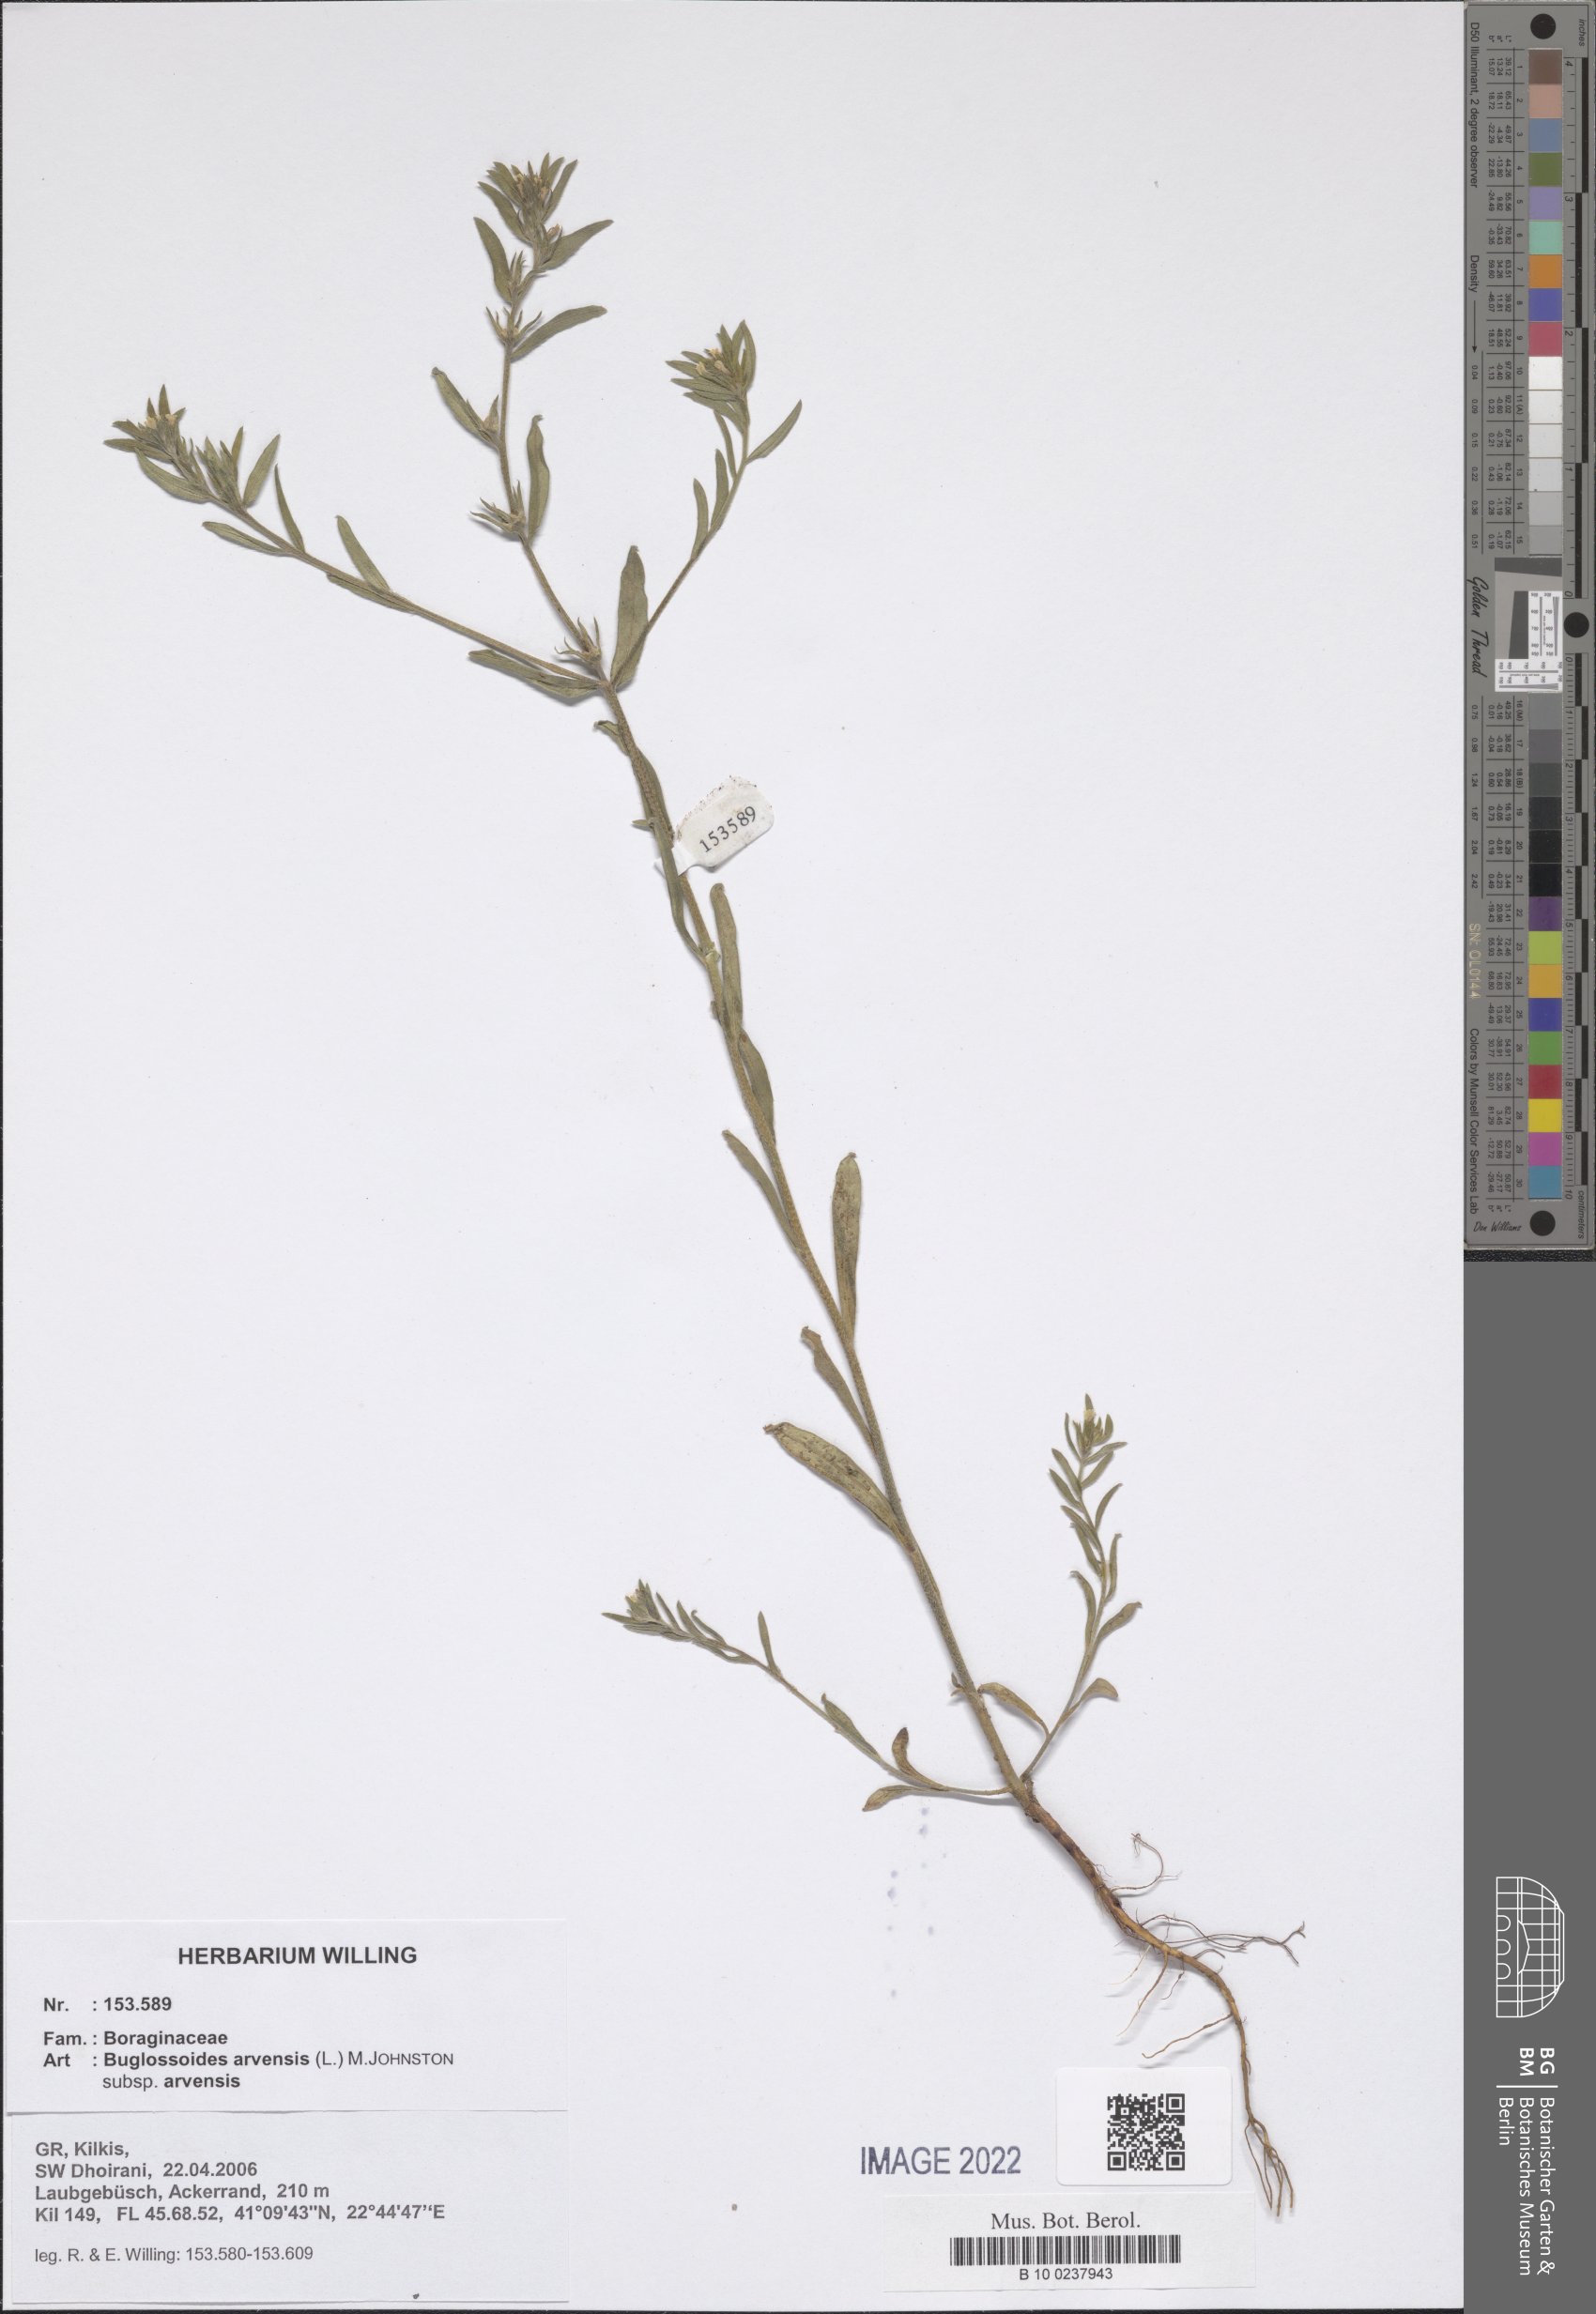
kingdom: Plantae
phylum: Tracheophyta
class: Magnoliopsida
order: Boraginales
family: Boraginaceae
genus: Buglossoides
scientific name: Buglossoides arvensis
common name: Corn gromwell
